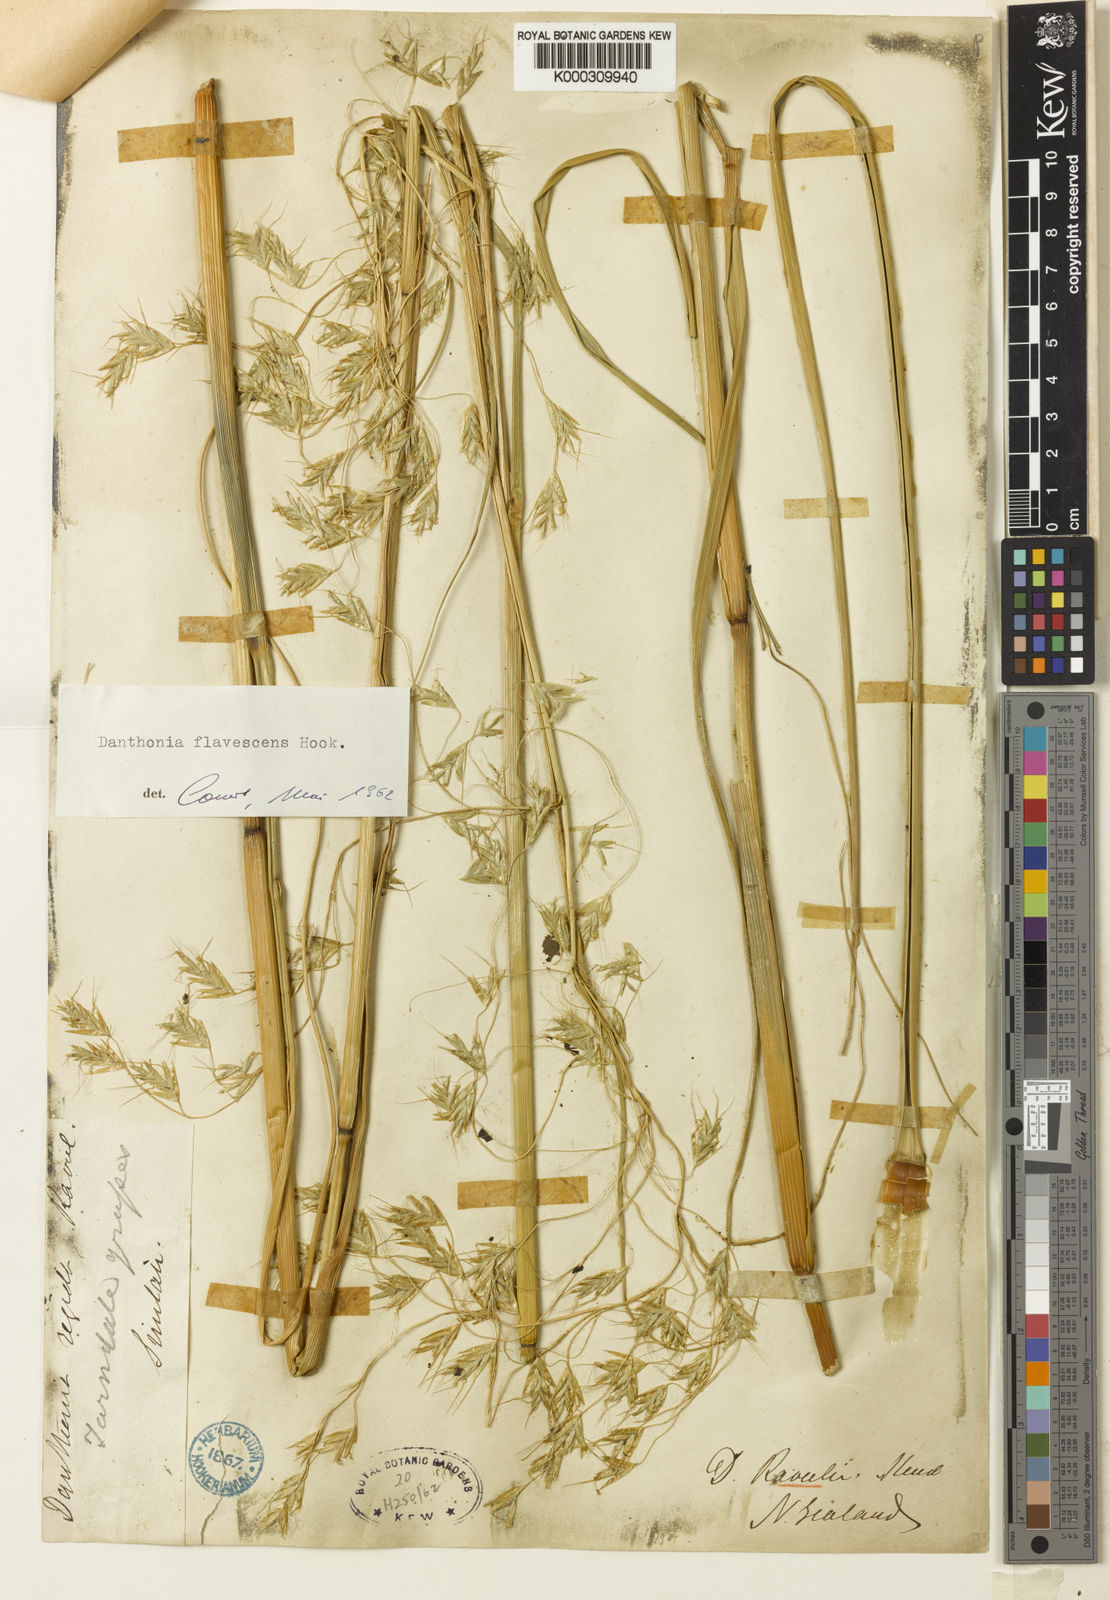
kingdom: Plantae
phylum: Tracheophyta
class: Liliopsida
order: Poales
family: Poaceae
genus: Chionochloa
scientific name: Chionochloa flavescens
